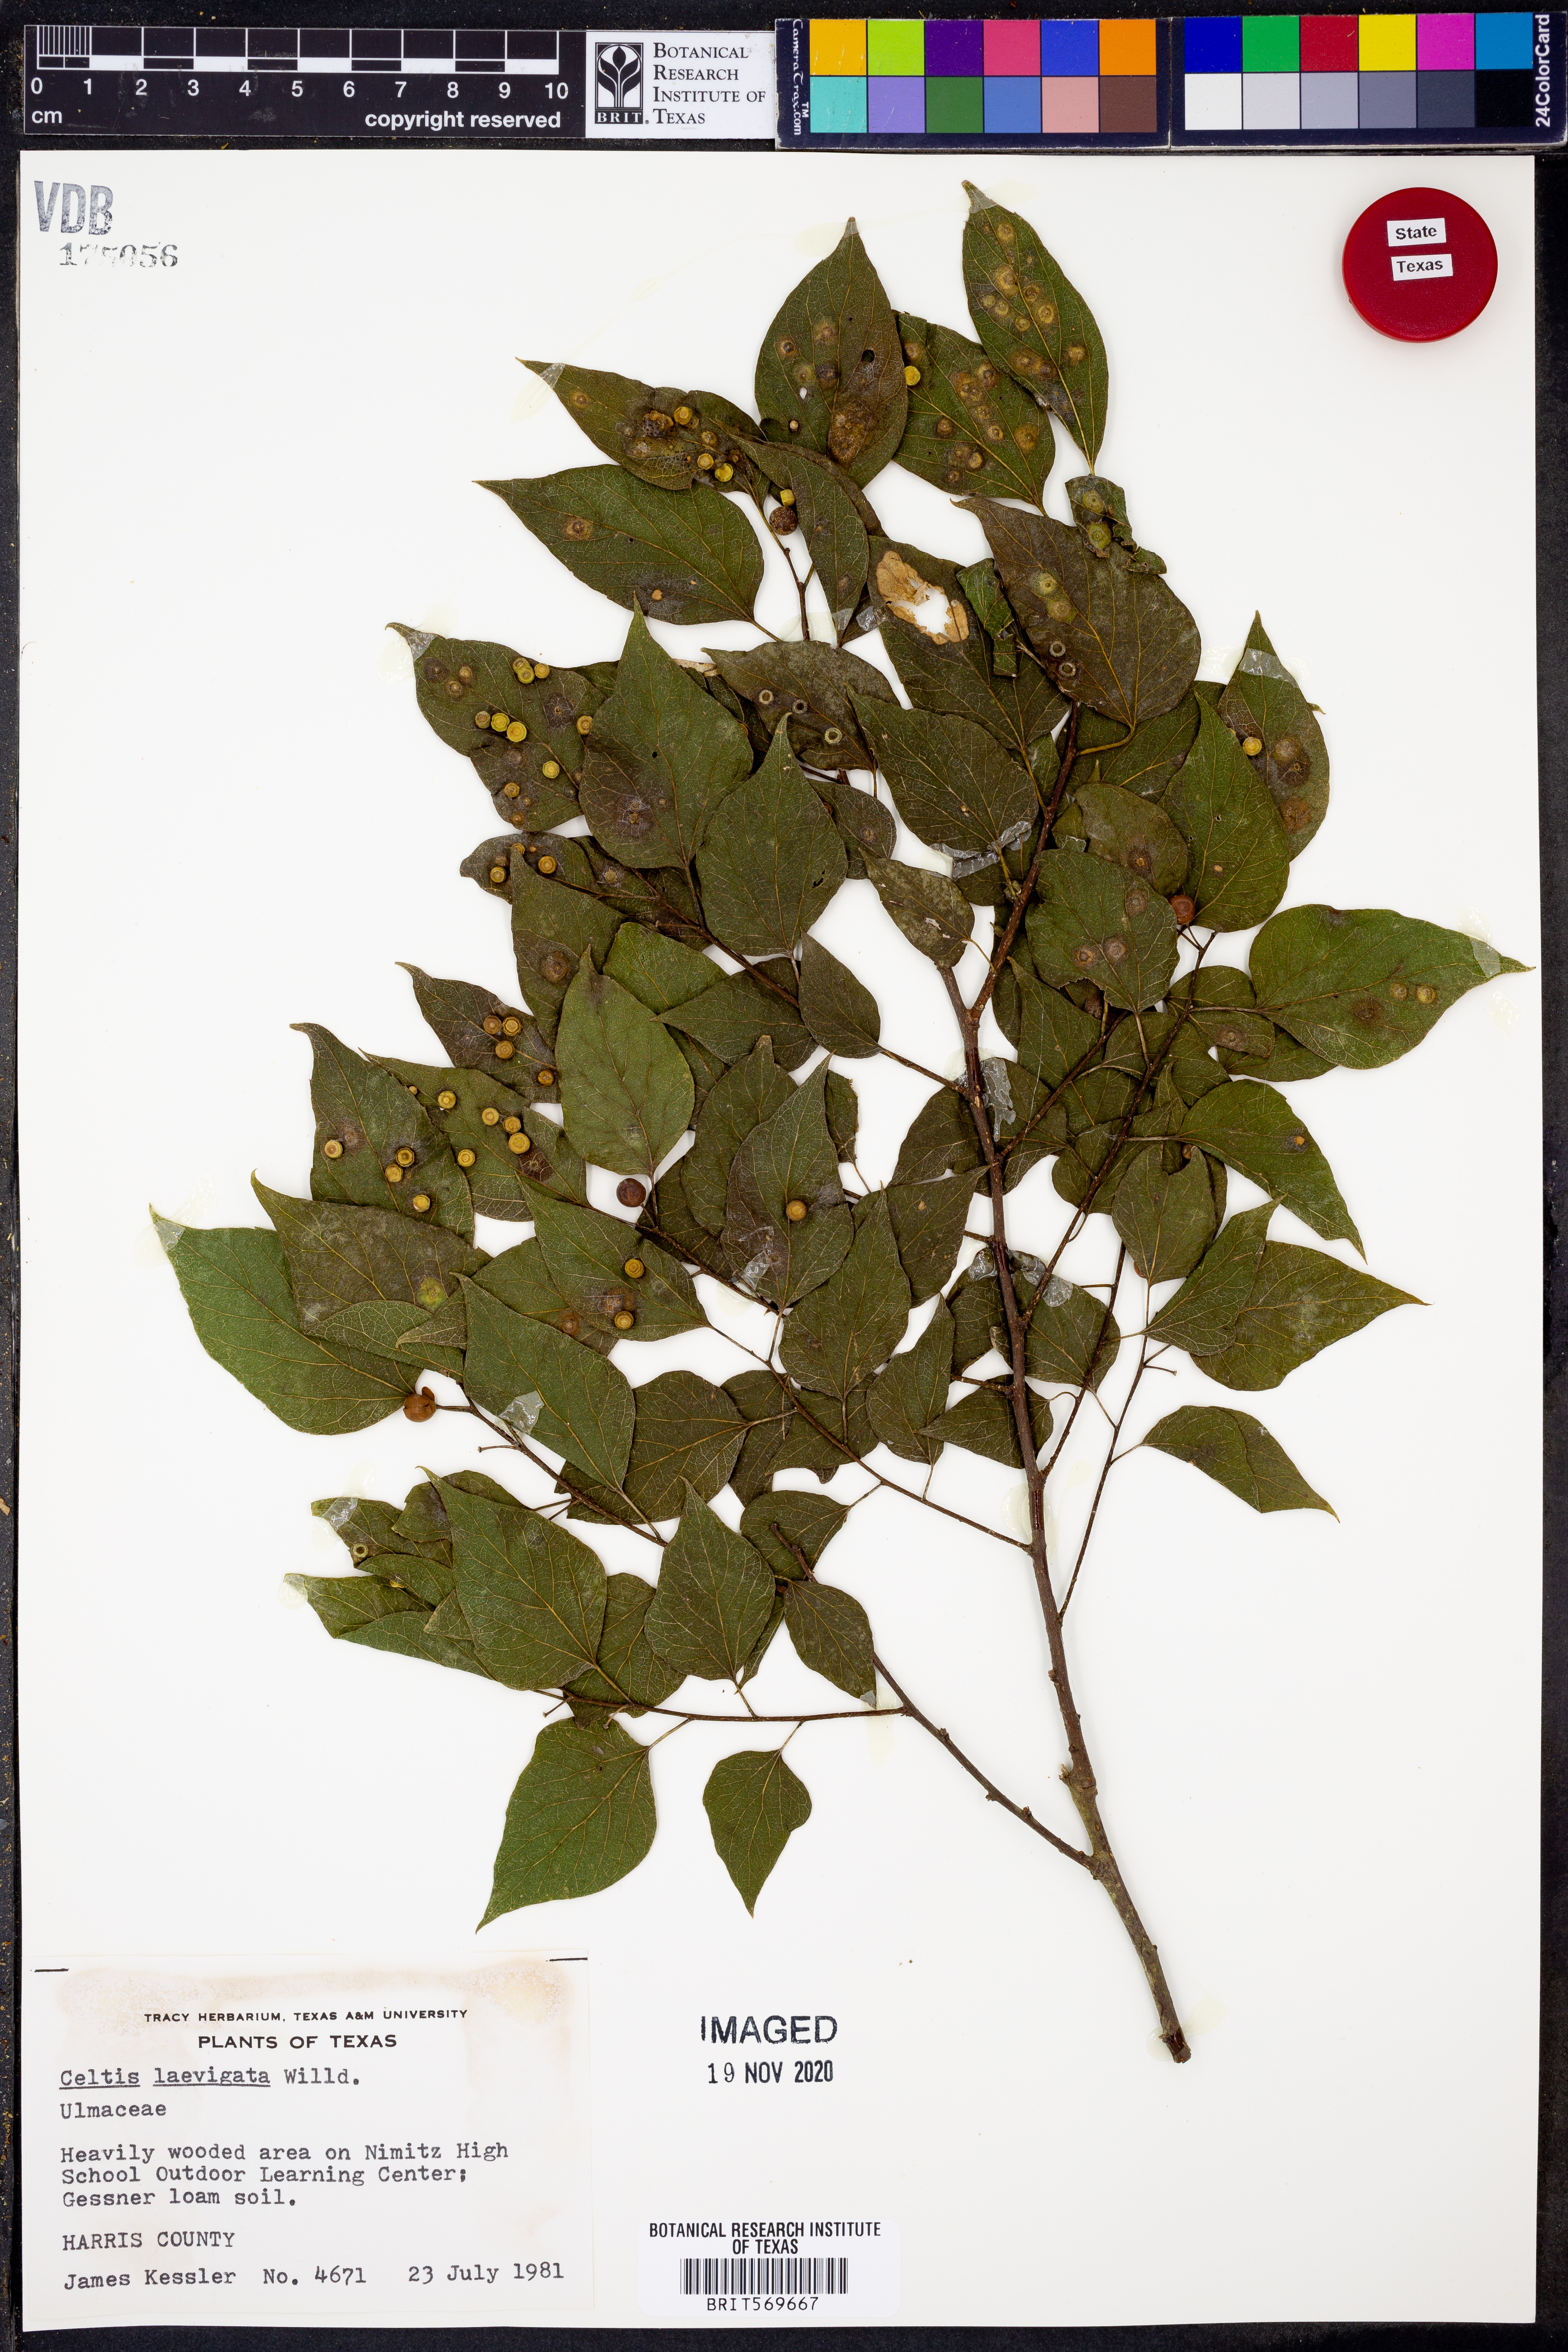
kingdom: Plantae
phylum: Tracheophyta
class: Magnoliopsida
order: Rosales
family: Cannabaceae
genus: Celtis
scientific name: Celtis laevigata
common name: Sugarberry
